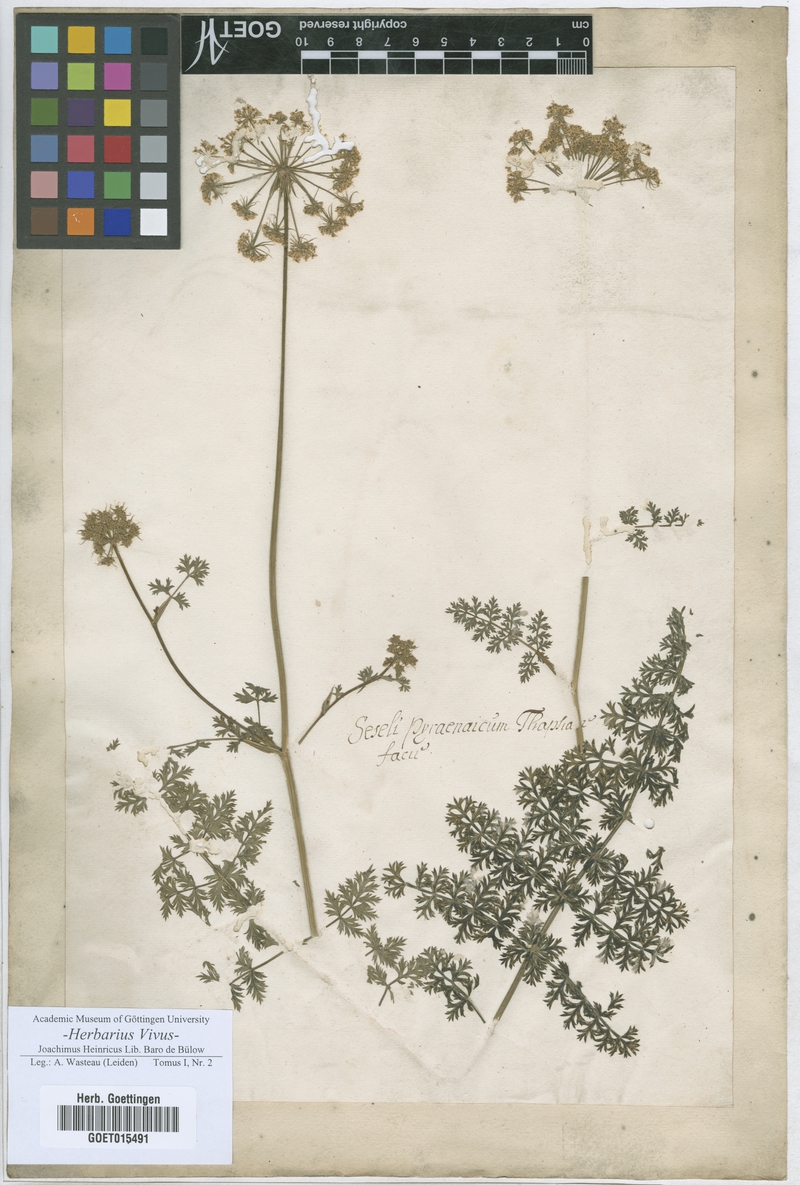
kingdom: Plantae
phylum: Tracheophyta
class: Magnoliopsida
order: Apiales
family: Apiaceae
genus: Seseli
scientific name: Seseli
